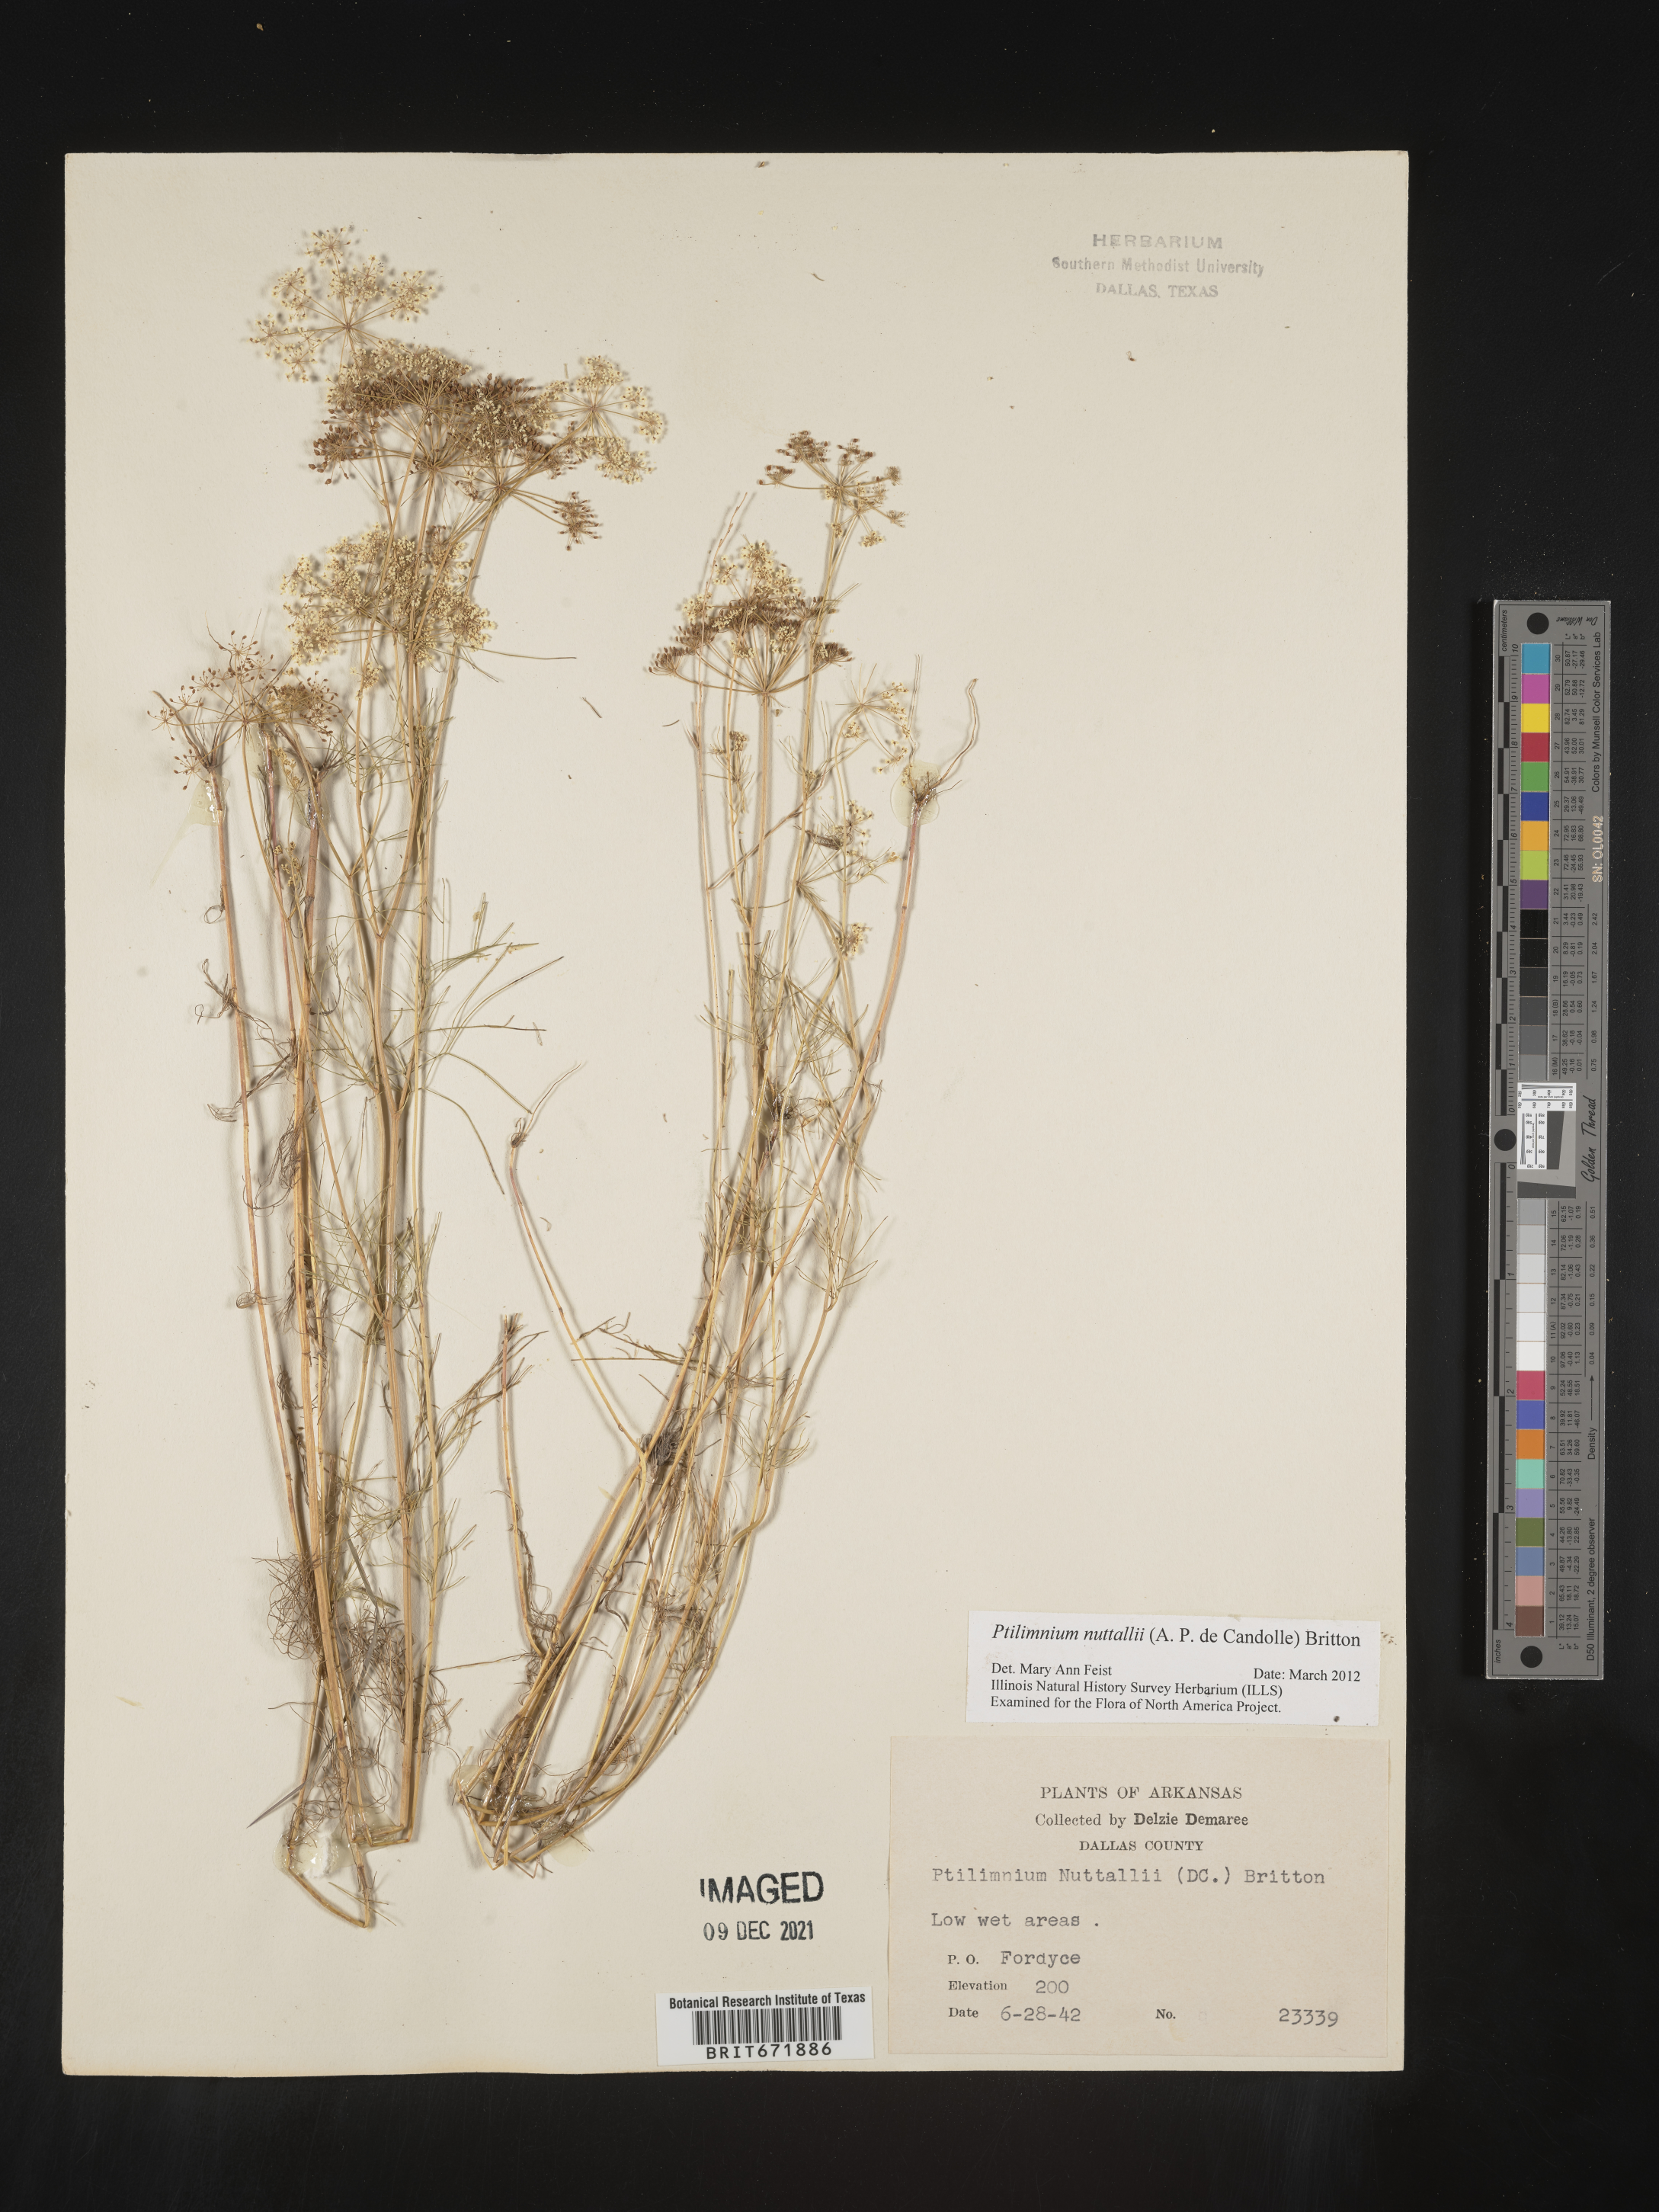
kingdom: Plantae
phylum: Tracheophyta
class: Magnoliopsida
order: Apiales
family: Apiaceae
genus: Ptilimnium
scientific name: Ptilimnium nuttallii
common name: Ozark bishop's-weed
